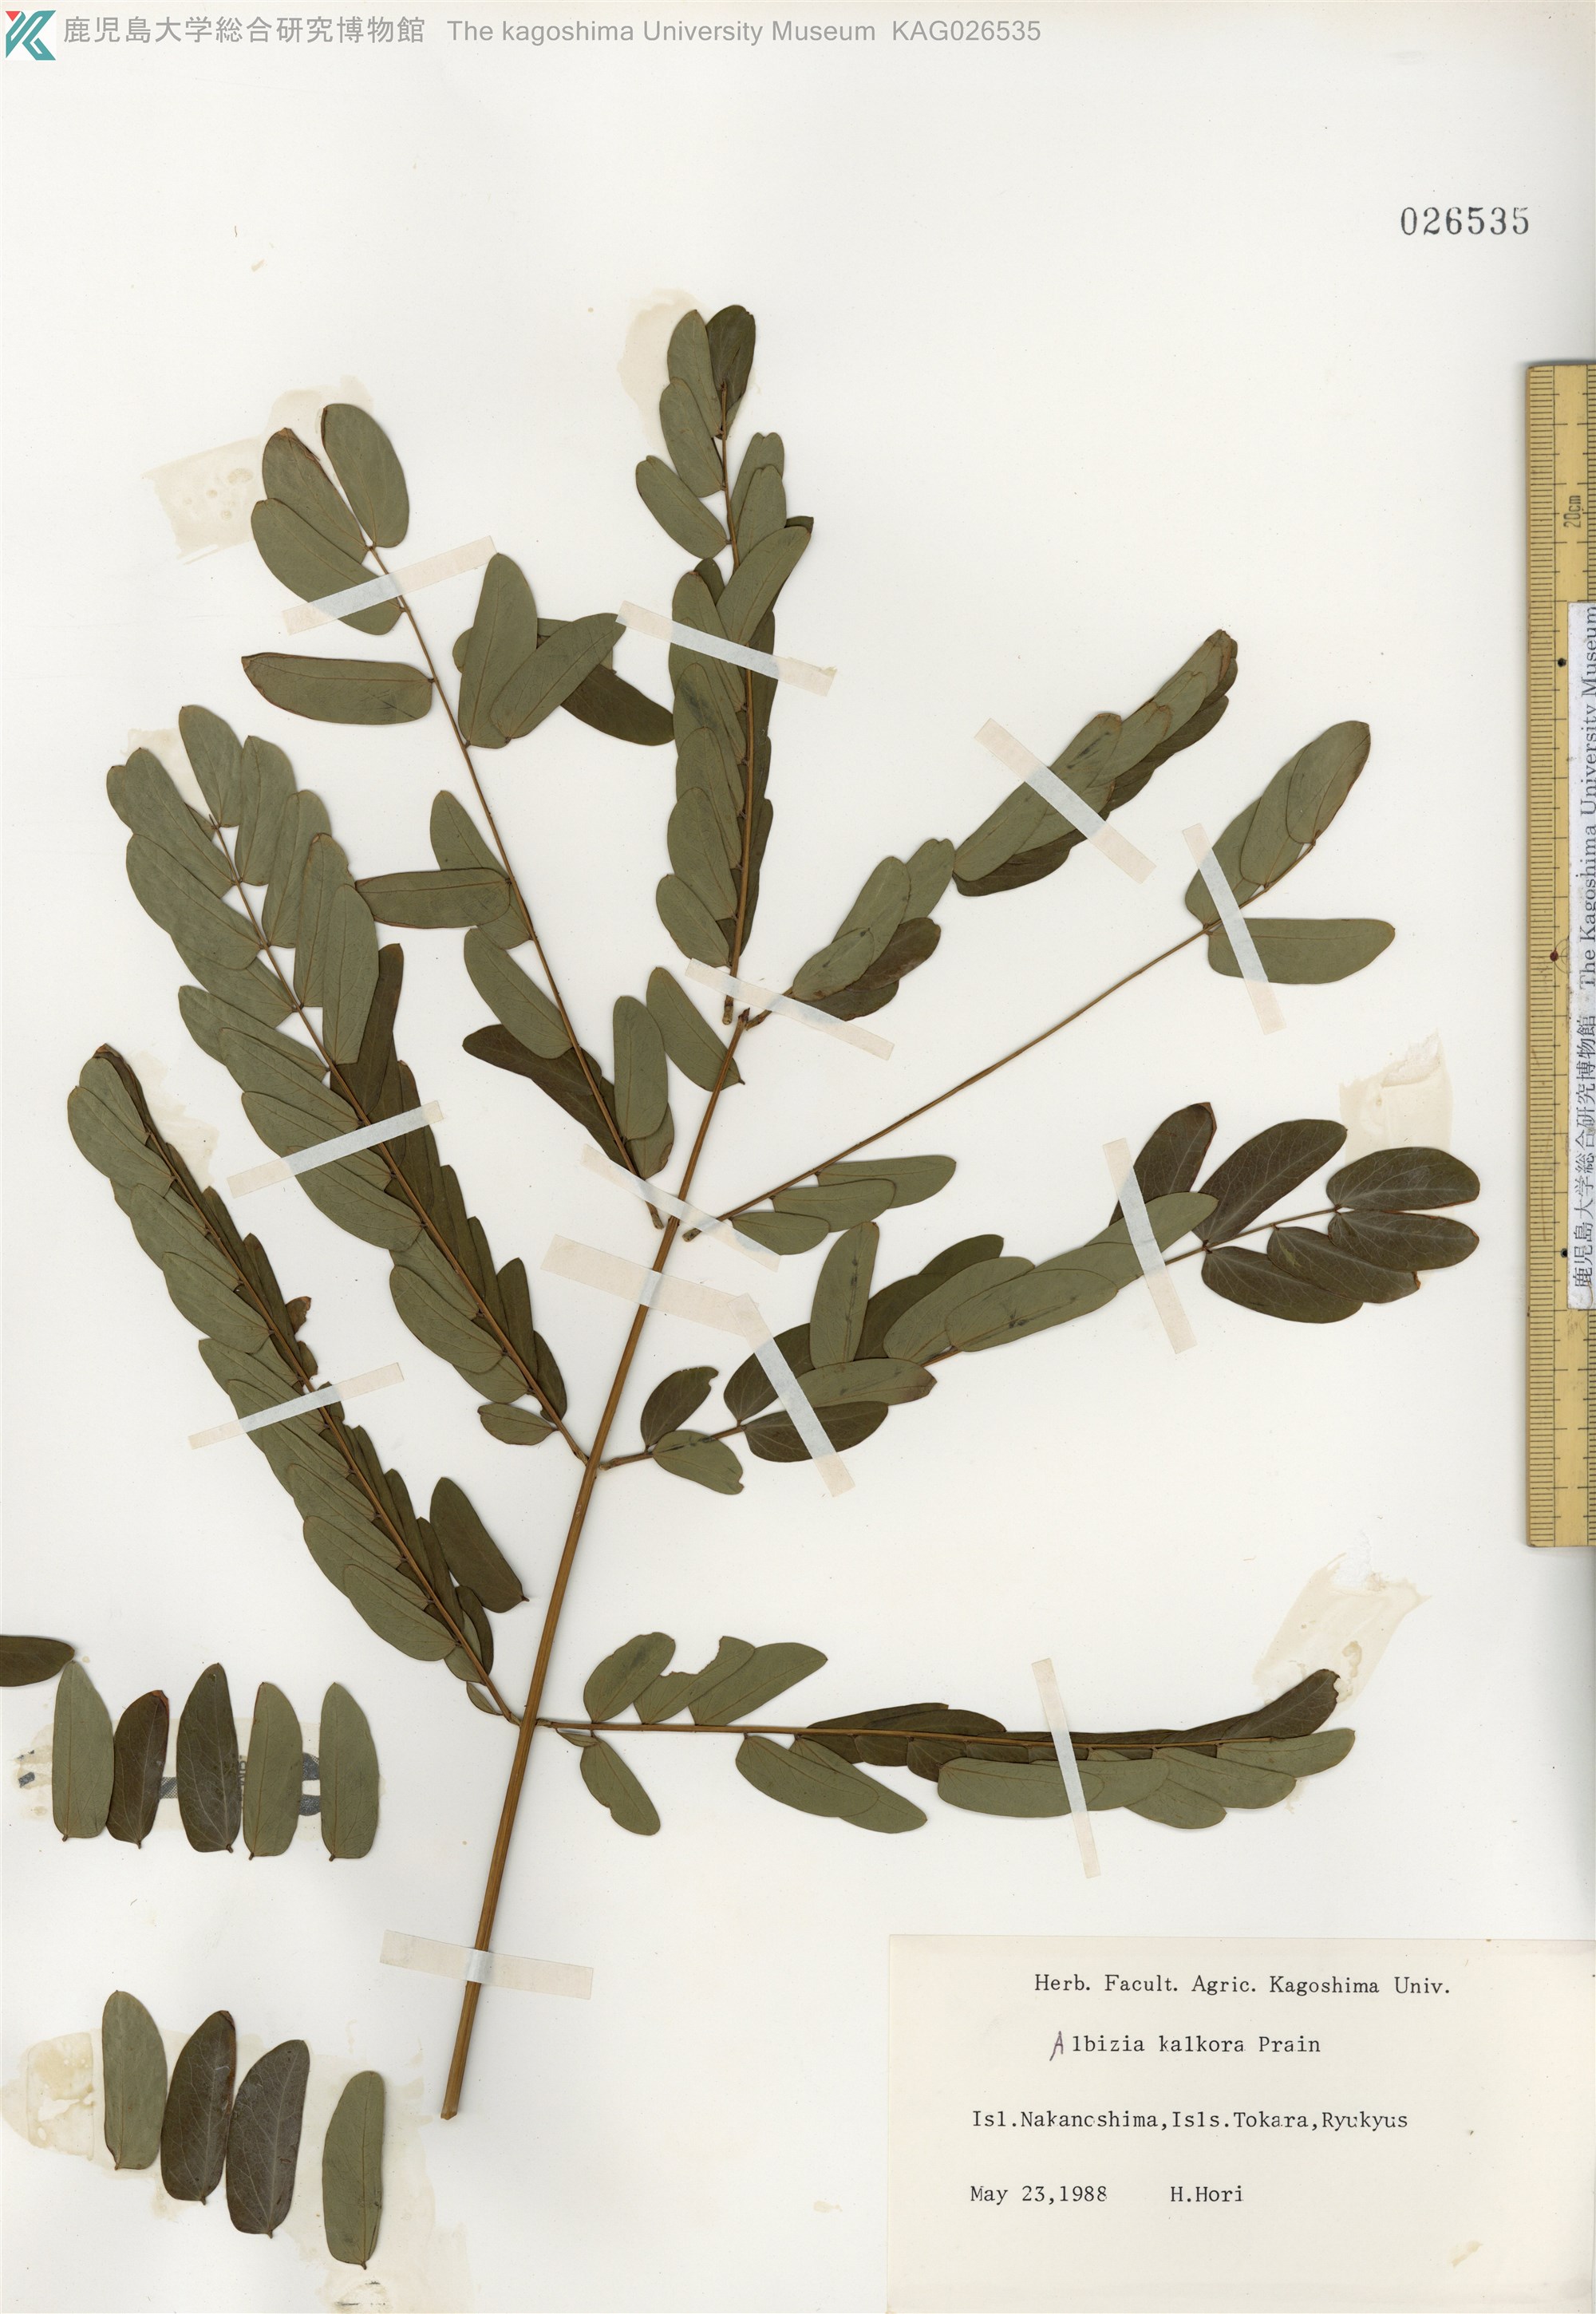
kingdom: Plantae
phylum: Tracheophyta
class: Magnoliopsida
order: Fabales
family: Fabaceae
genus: Albizia
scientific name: Albizia kalkora
